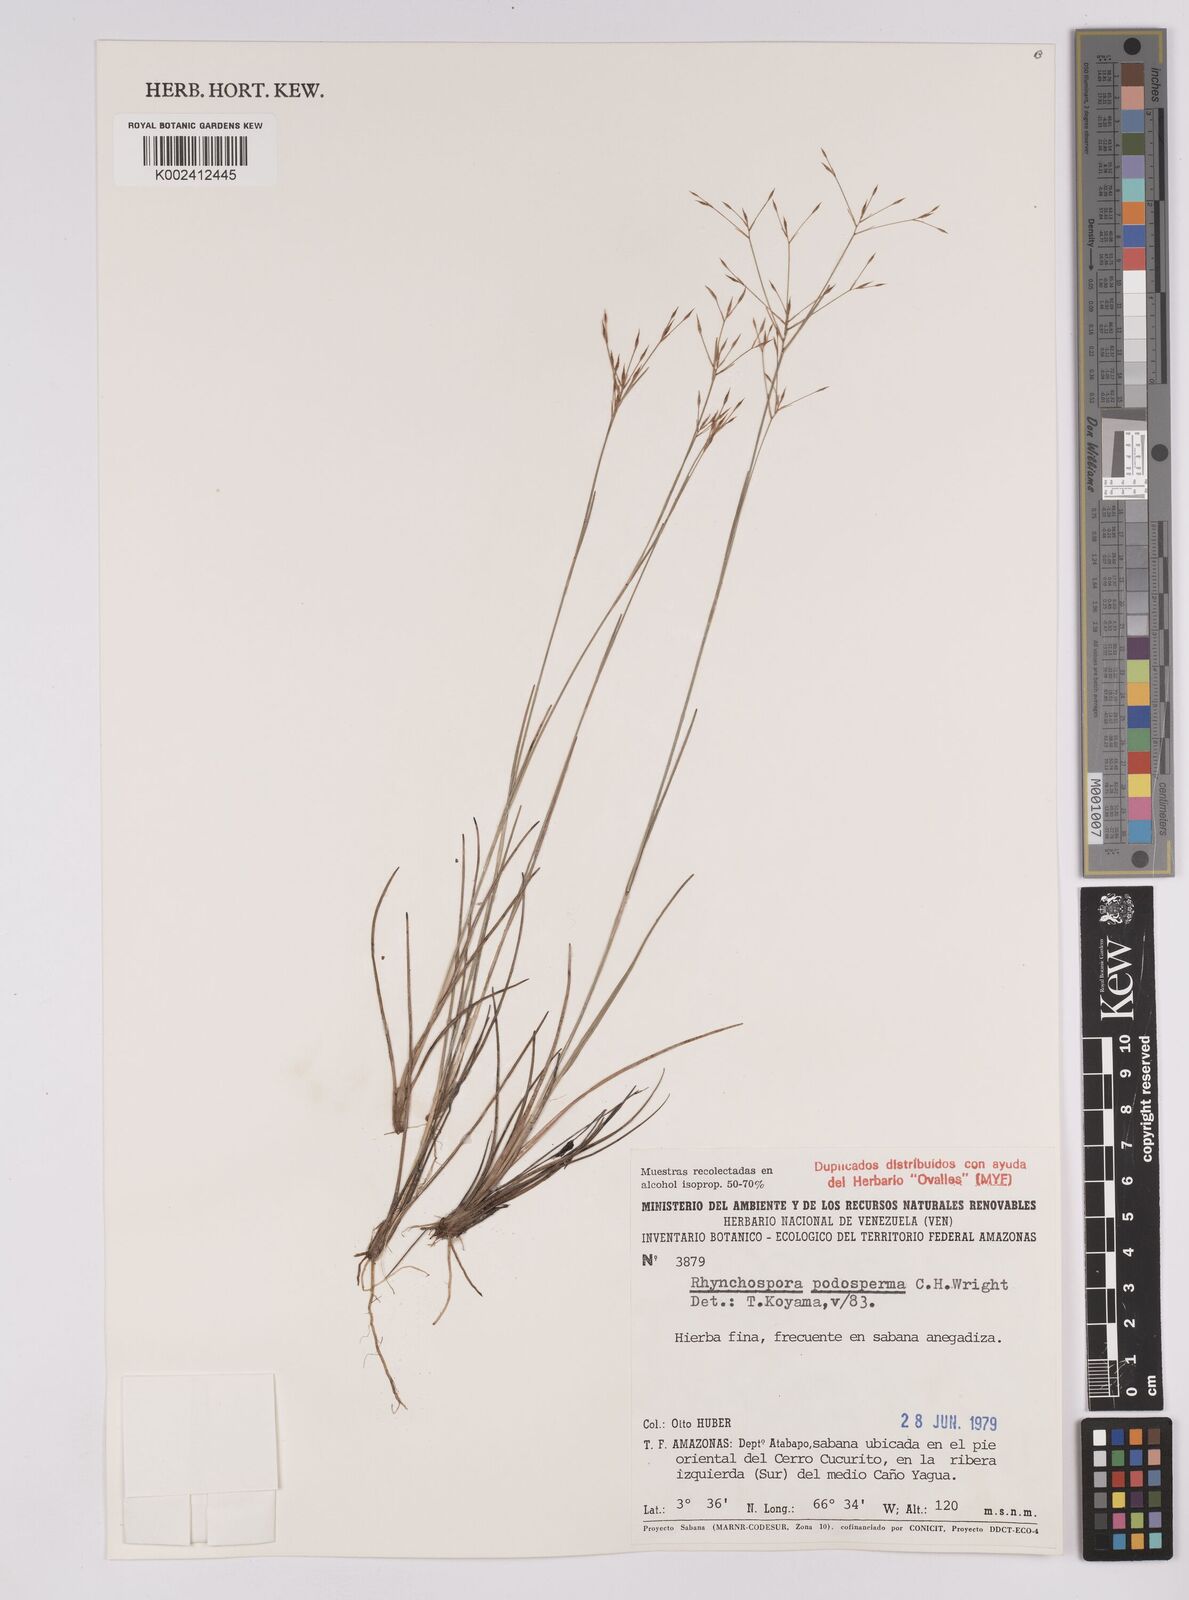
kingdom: Plantae
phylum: Tracheophyta
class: Liliopsida
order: Poales
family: Cyperaceae
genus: Rhynchospora
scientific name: Rhynchospora filiformis
